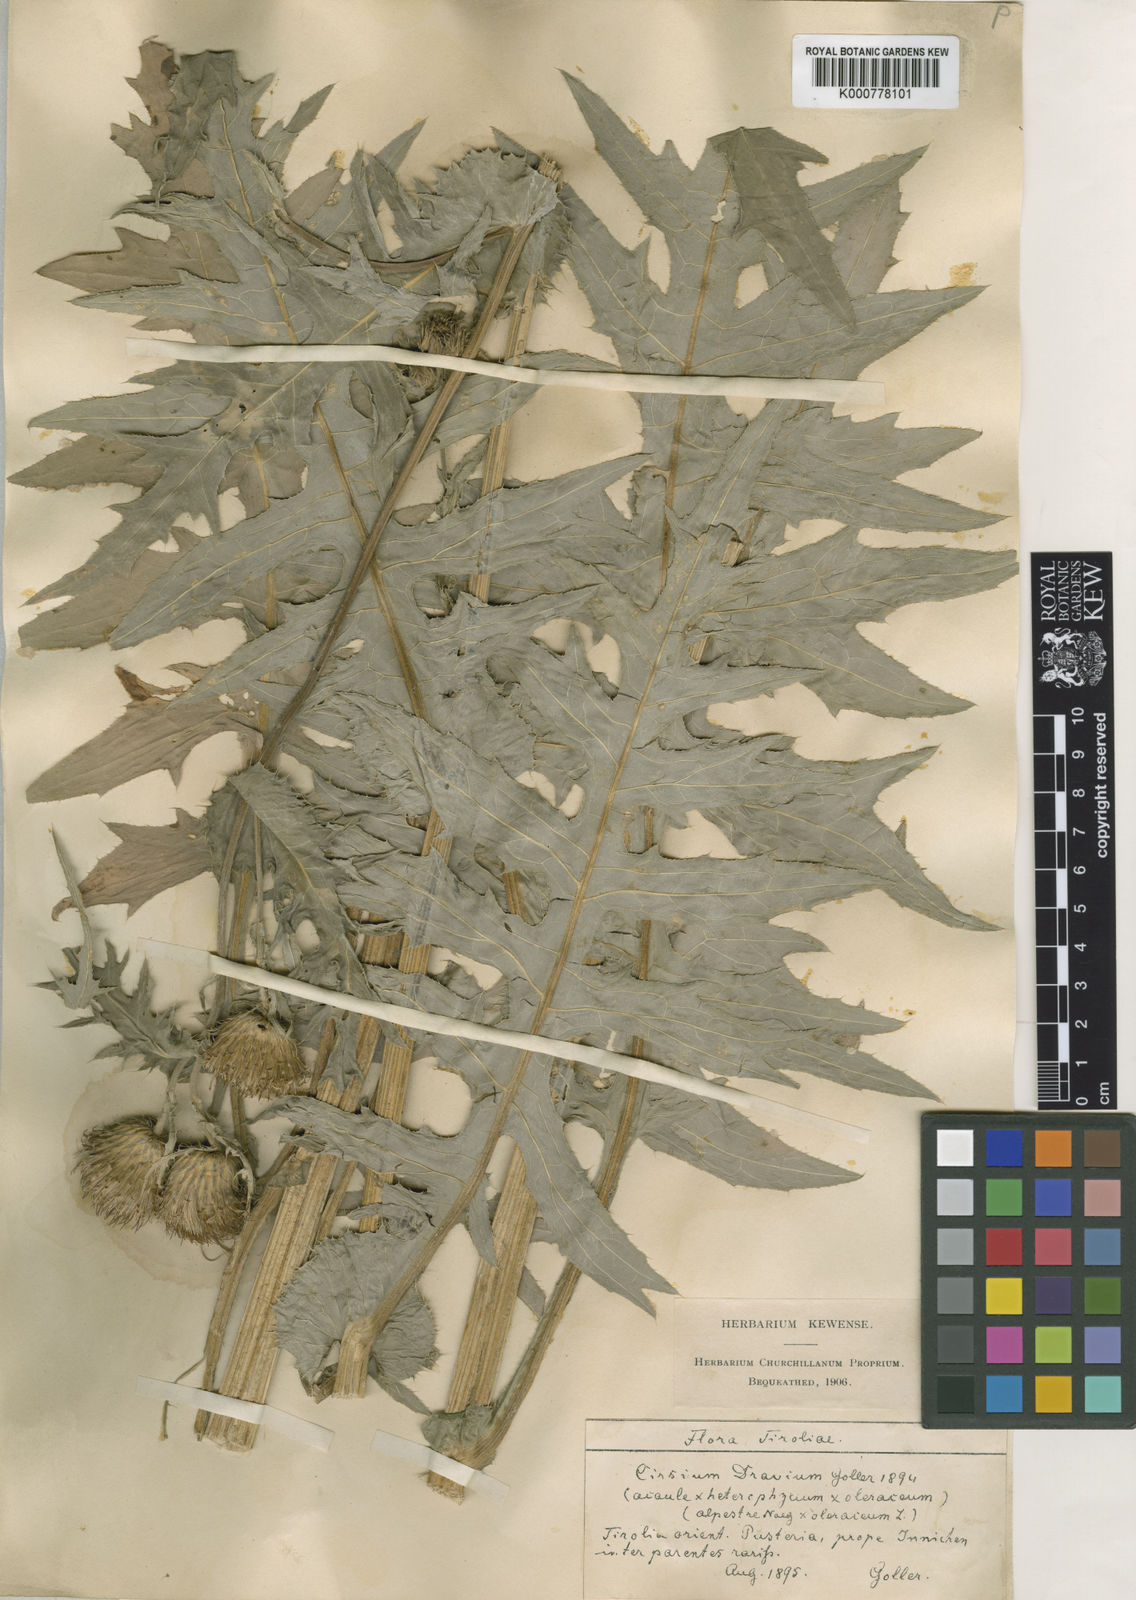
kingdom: Plantae
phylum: Tracheophyta
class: Magnoliopsida
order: Asterales
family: Asteraceae
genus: Cirsium
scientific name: Cirsium
